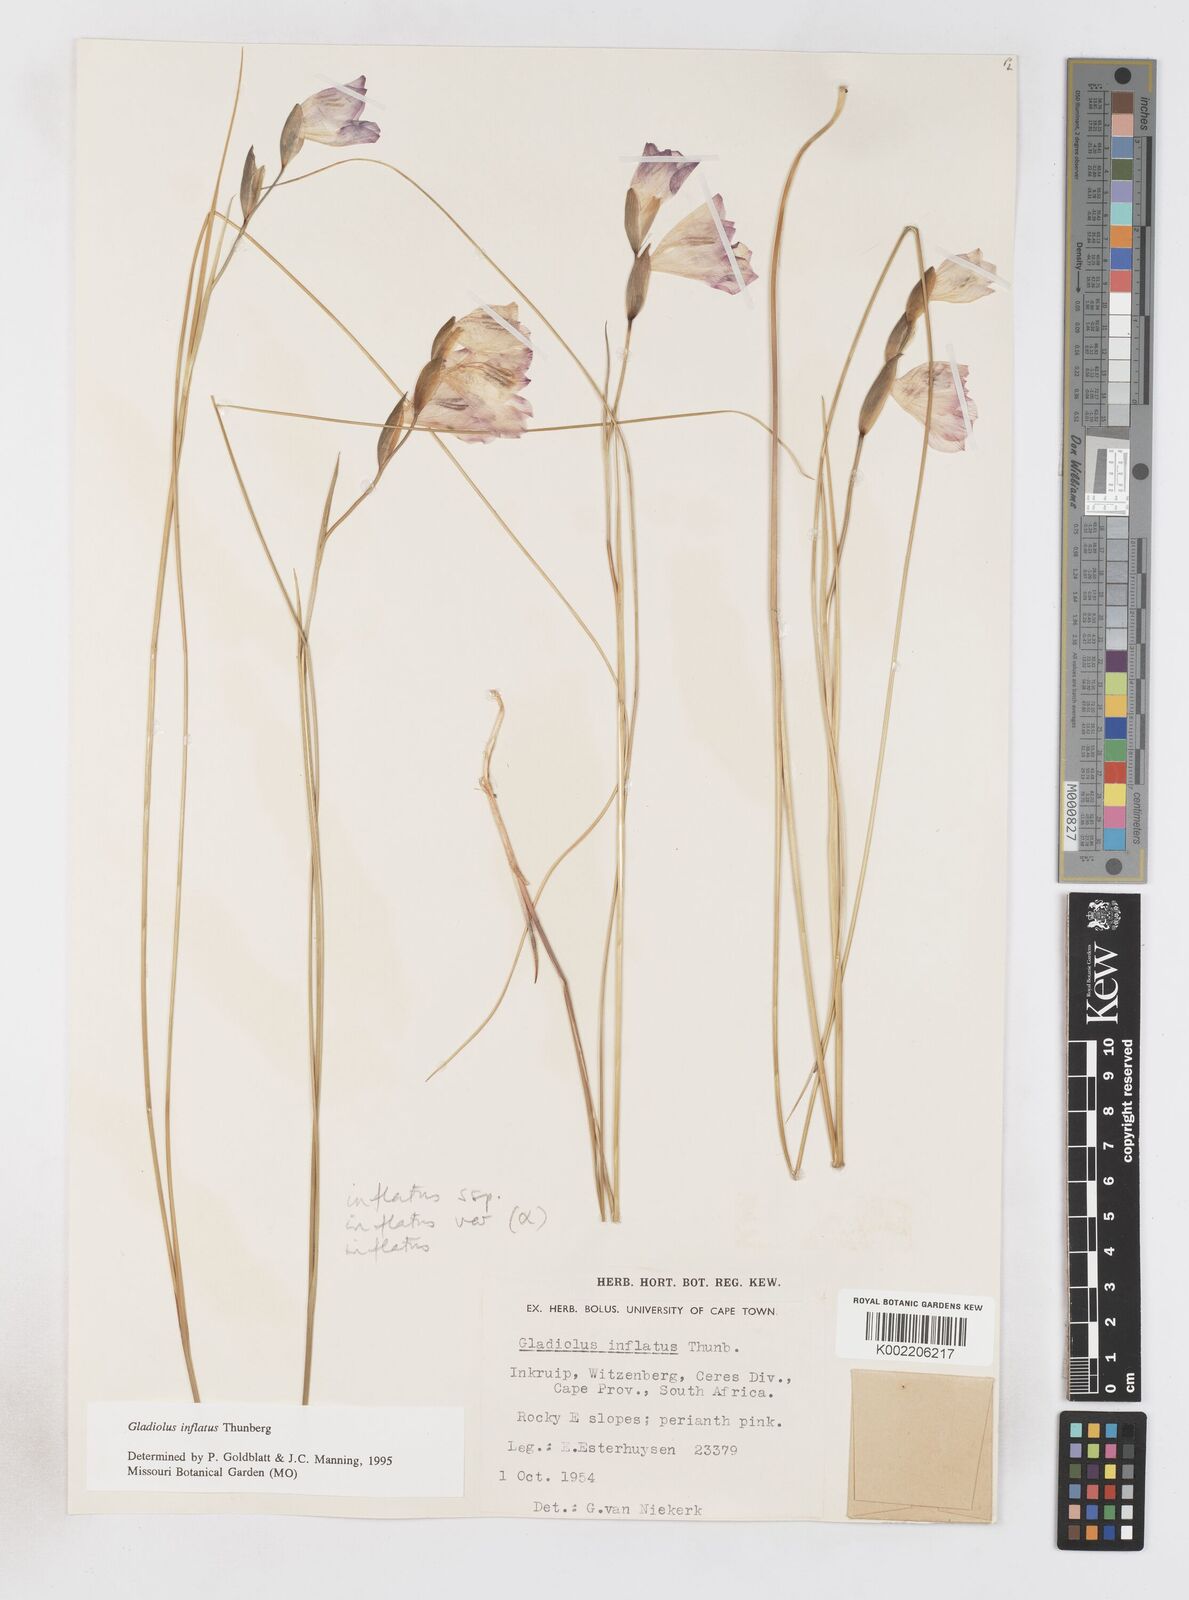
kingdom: Plantae
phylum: Tracheophyta
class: Liliopsida
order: Asparagales
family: Iridaceae
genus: Gladiolus
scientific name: Gladiolus inflatus
